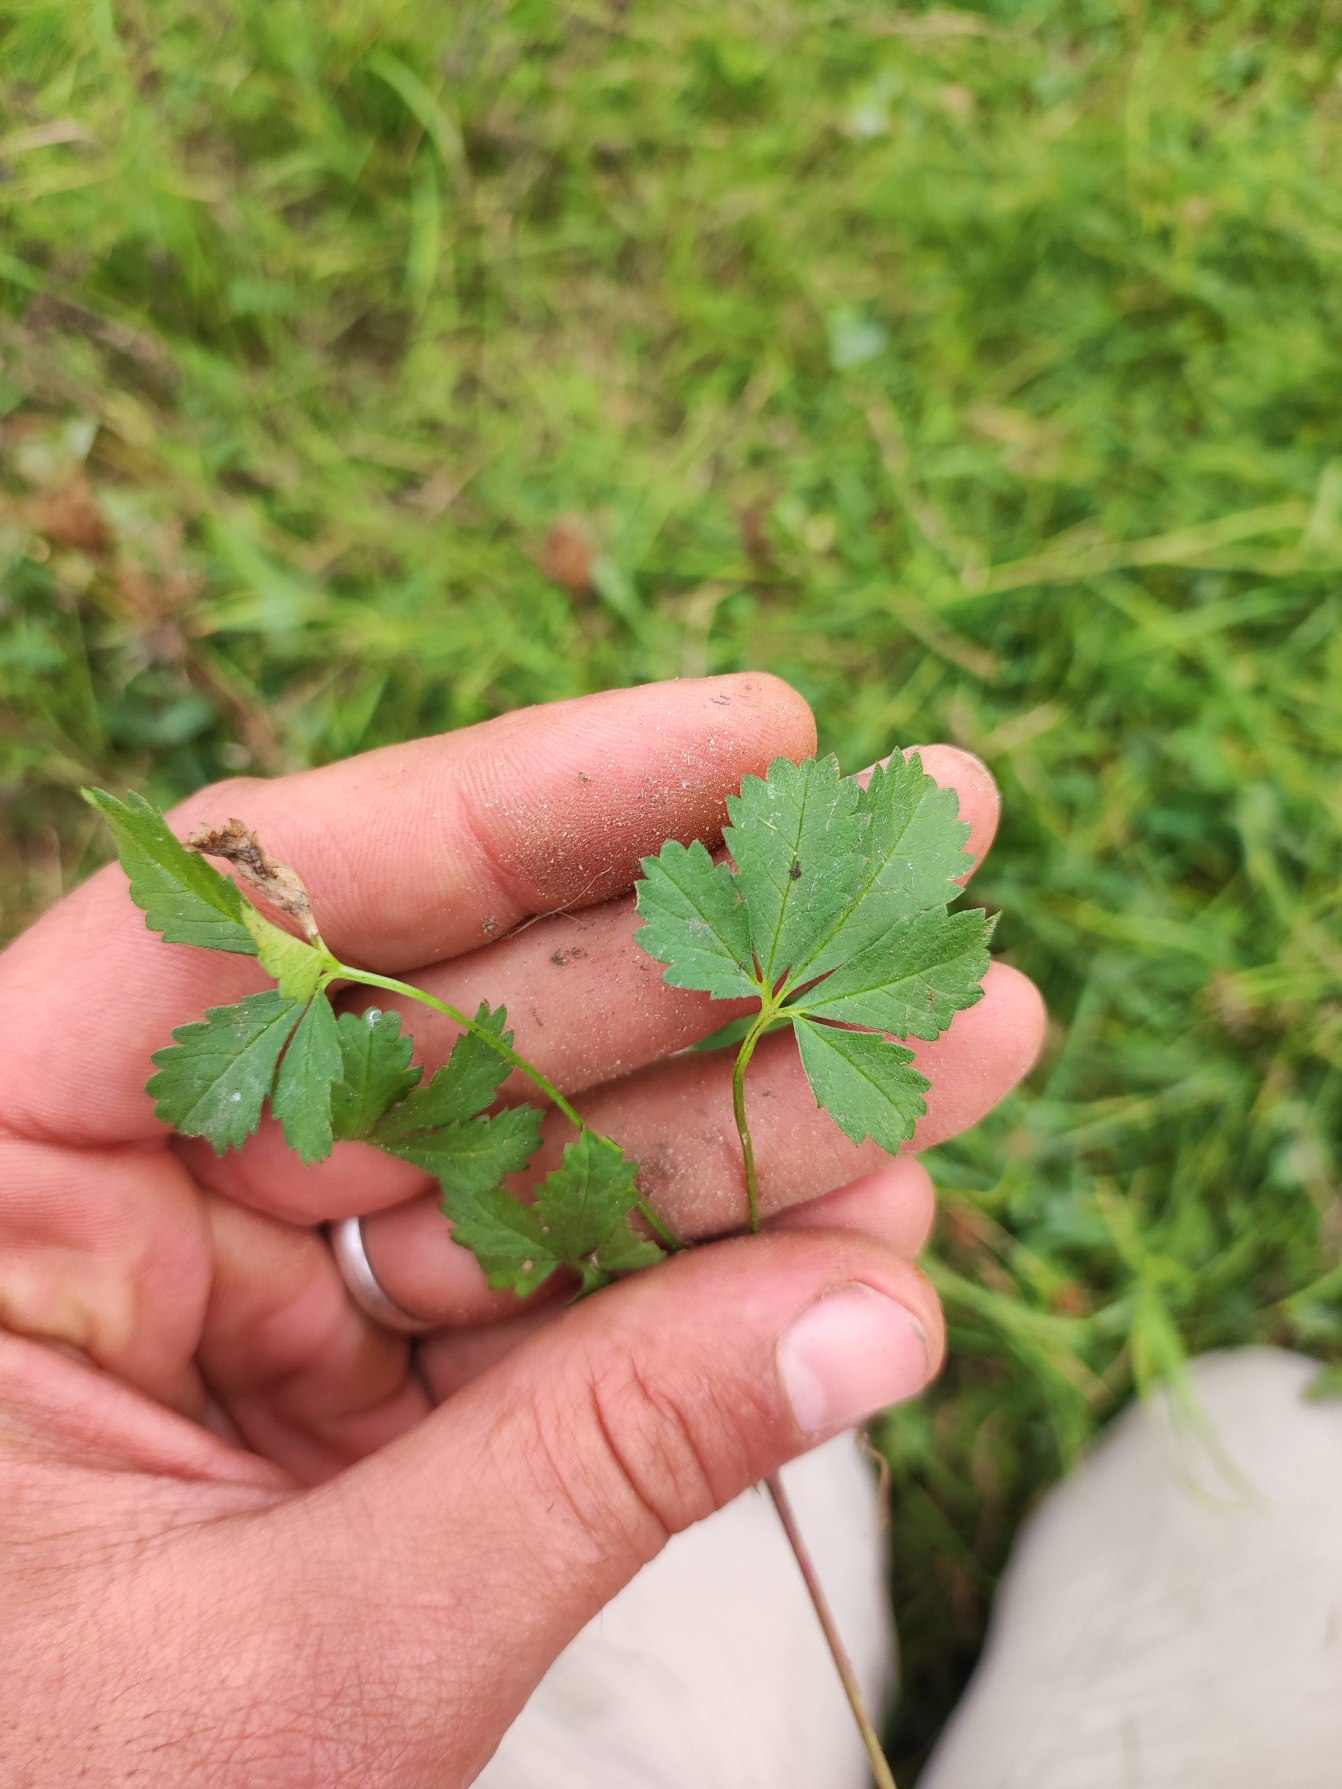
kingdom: Plantae
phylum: Tracheophyta
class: Magnoliopsida
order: Rosales
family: Rosaceae
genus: Potentilla
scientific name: Potentilla reptans
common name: Krybende potentil
